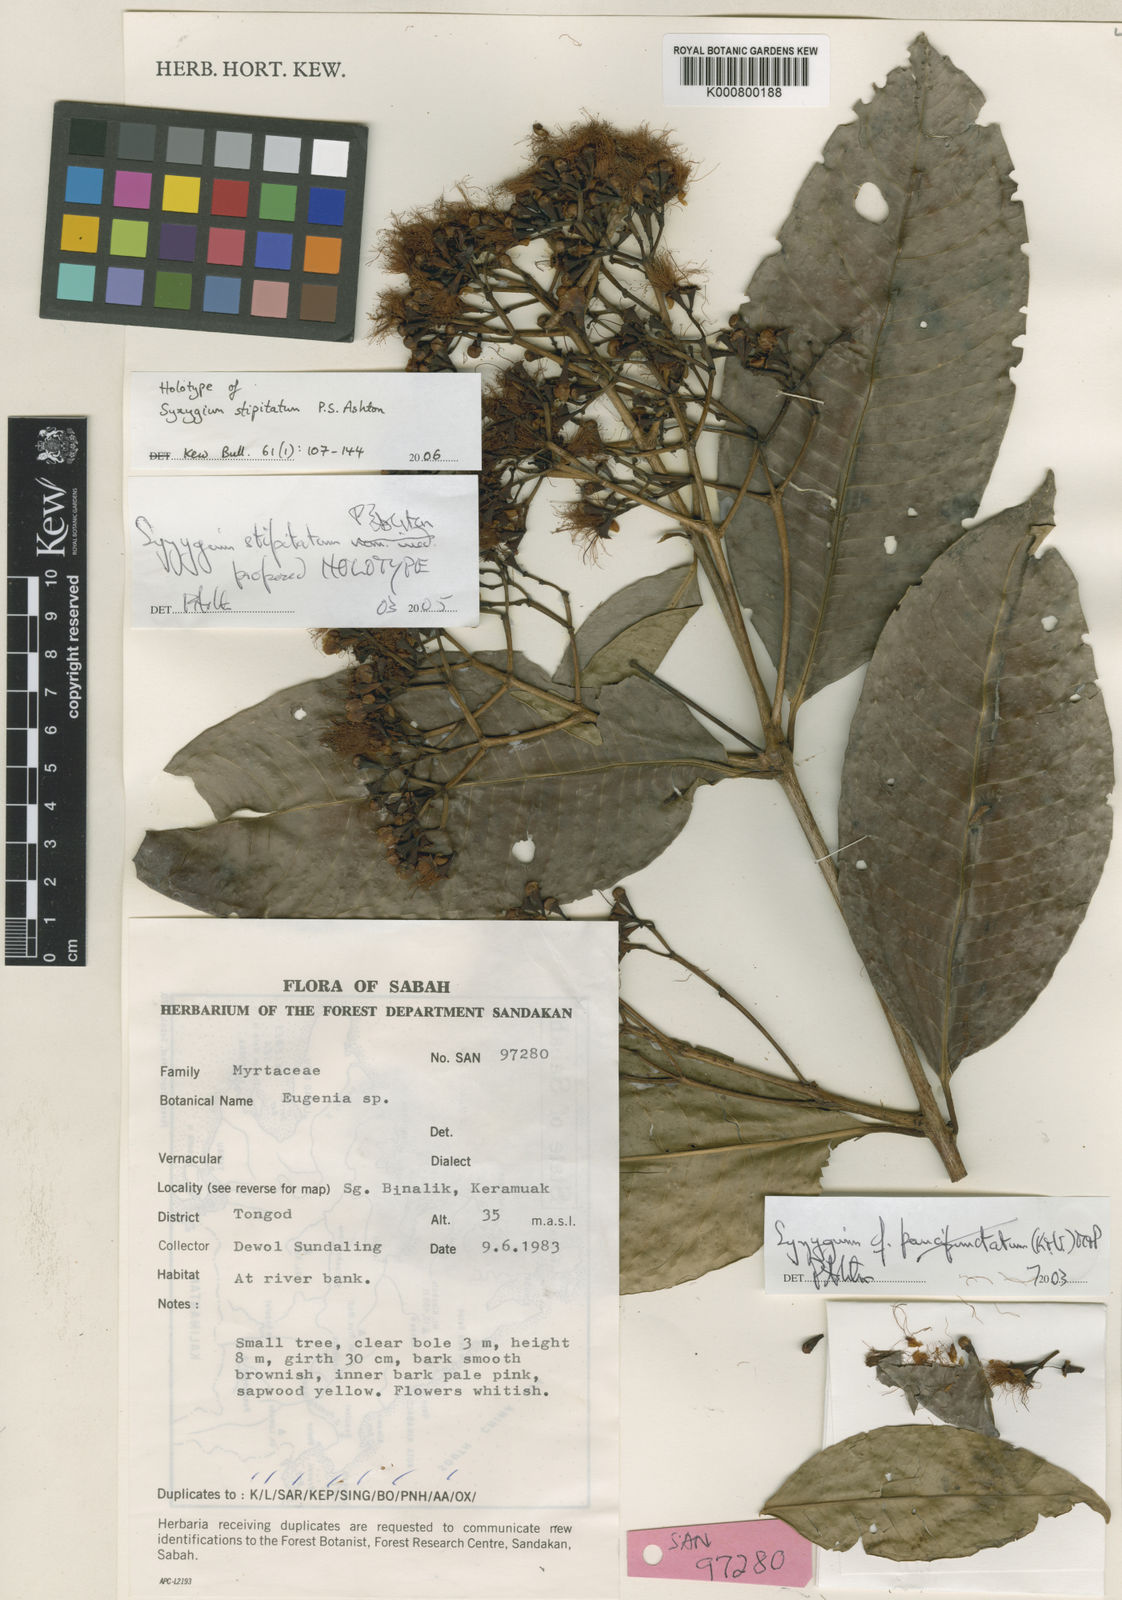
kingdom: Plantae
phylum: Tracheophyta
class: Magnoliopsida
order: Myrtales
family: Myrtaceae
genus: Syzygium
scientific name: Syzygium stipitatum
